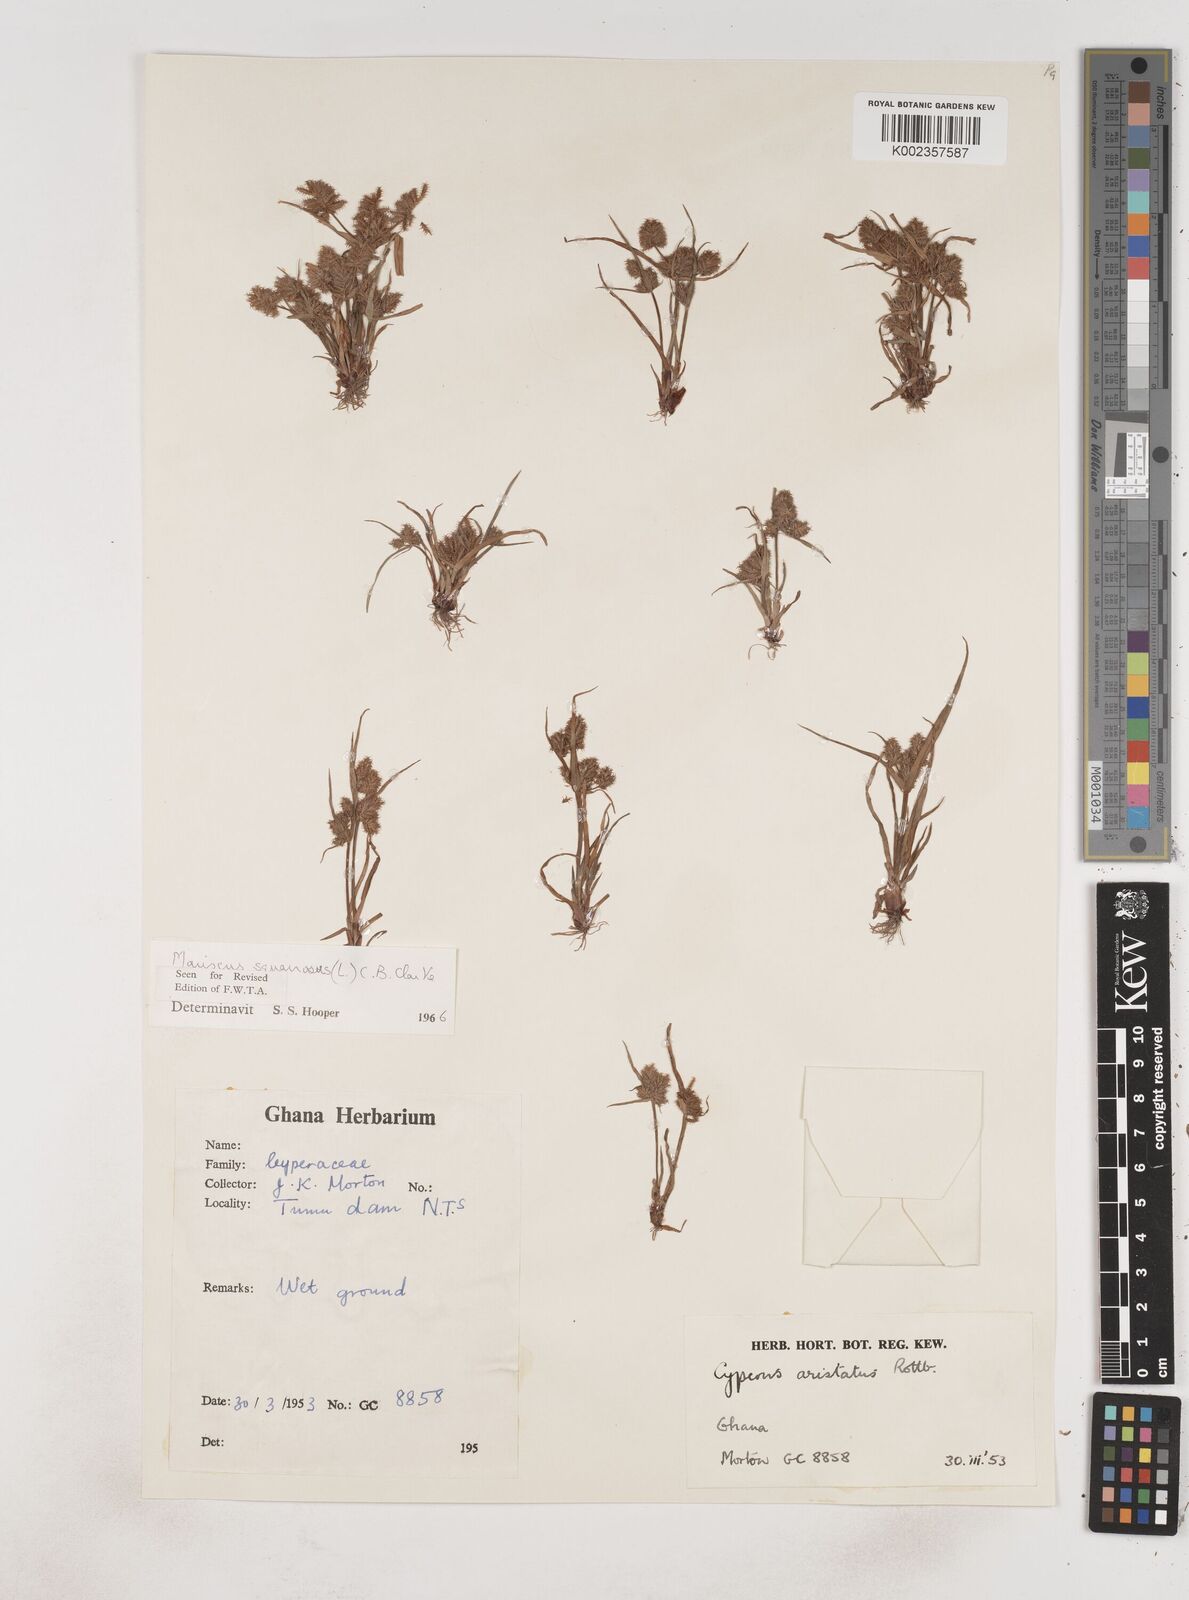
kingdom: Plantae
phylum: Tracheophyta
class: Liliopsida
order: Poales
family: Cyperaceae
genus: Cyperus
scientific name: Cyperus squarrosus
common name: Awned cyperus
